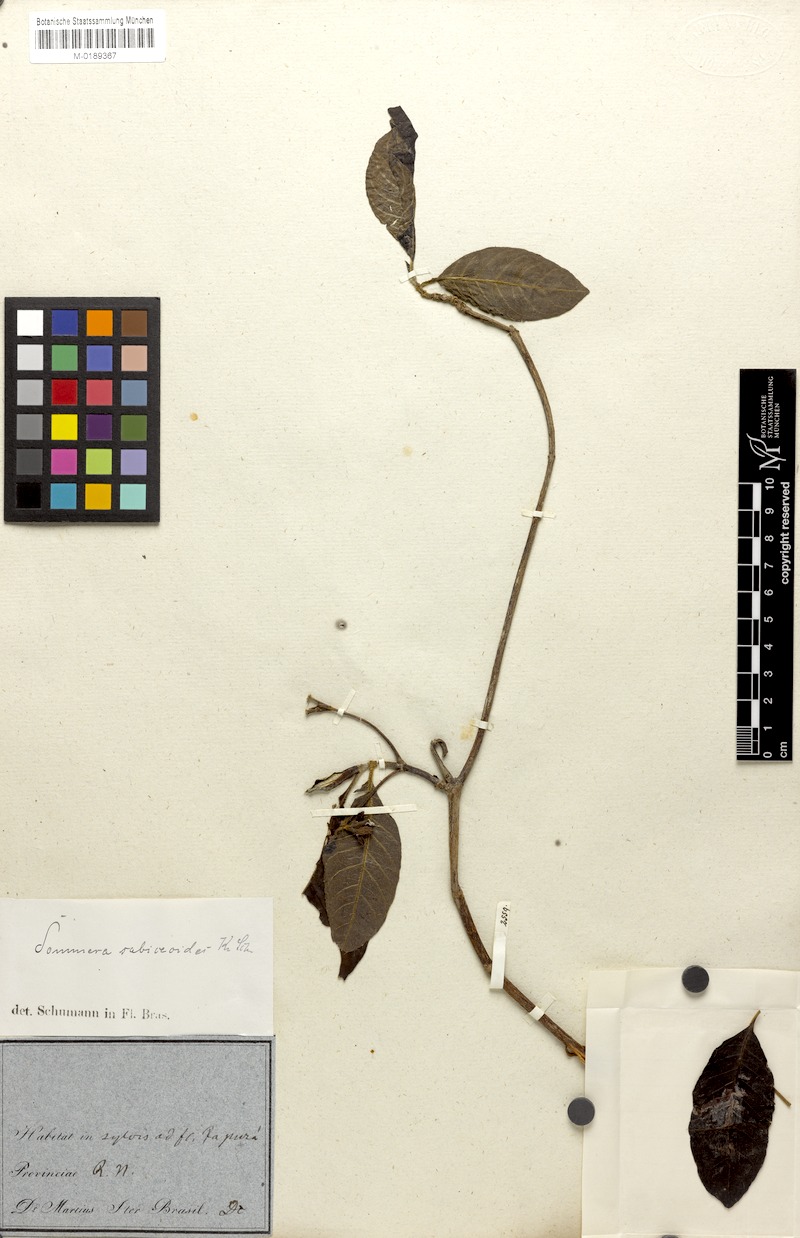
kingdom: Plantae
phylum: Tracheophyta
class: Magnoliopsida
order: Gentianales
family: Rubiaceae
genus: Sommera
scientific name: Sommera sabiceoides
